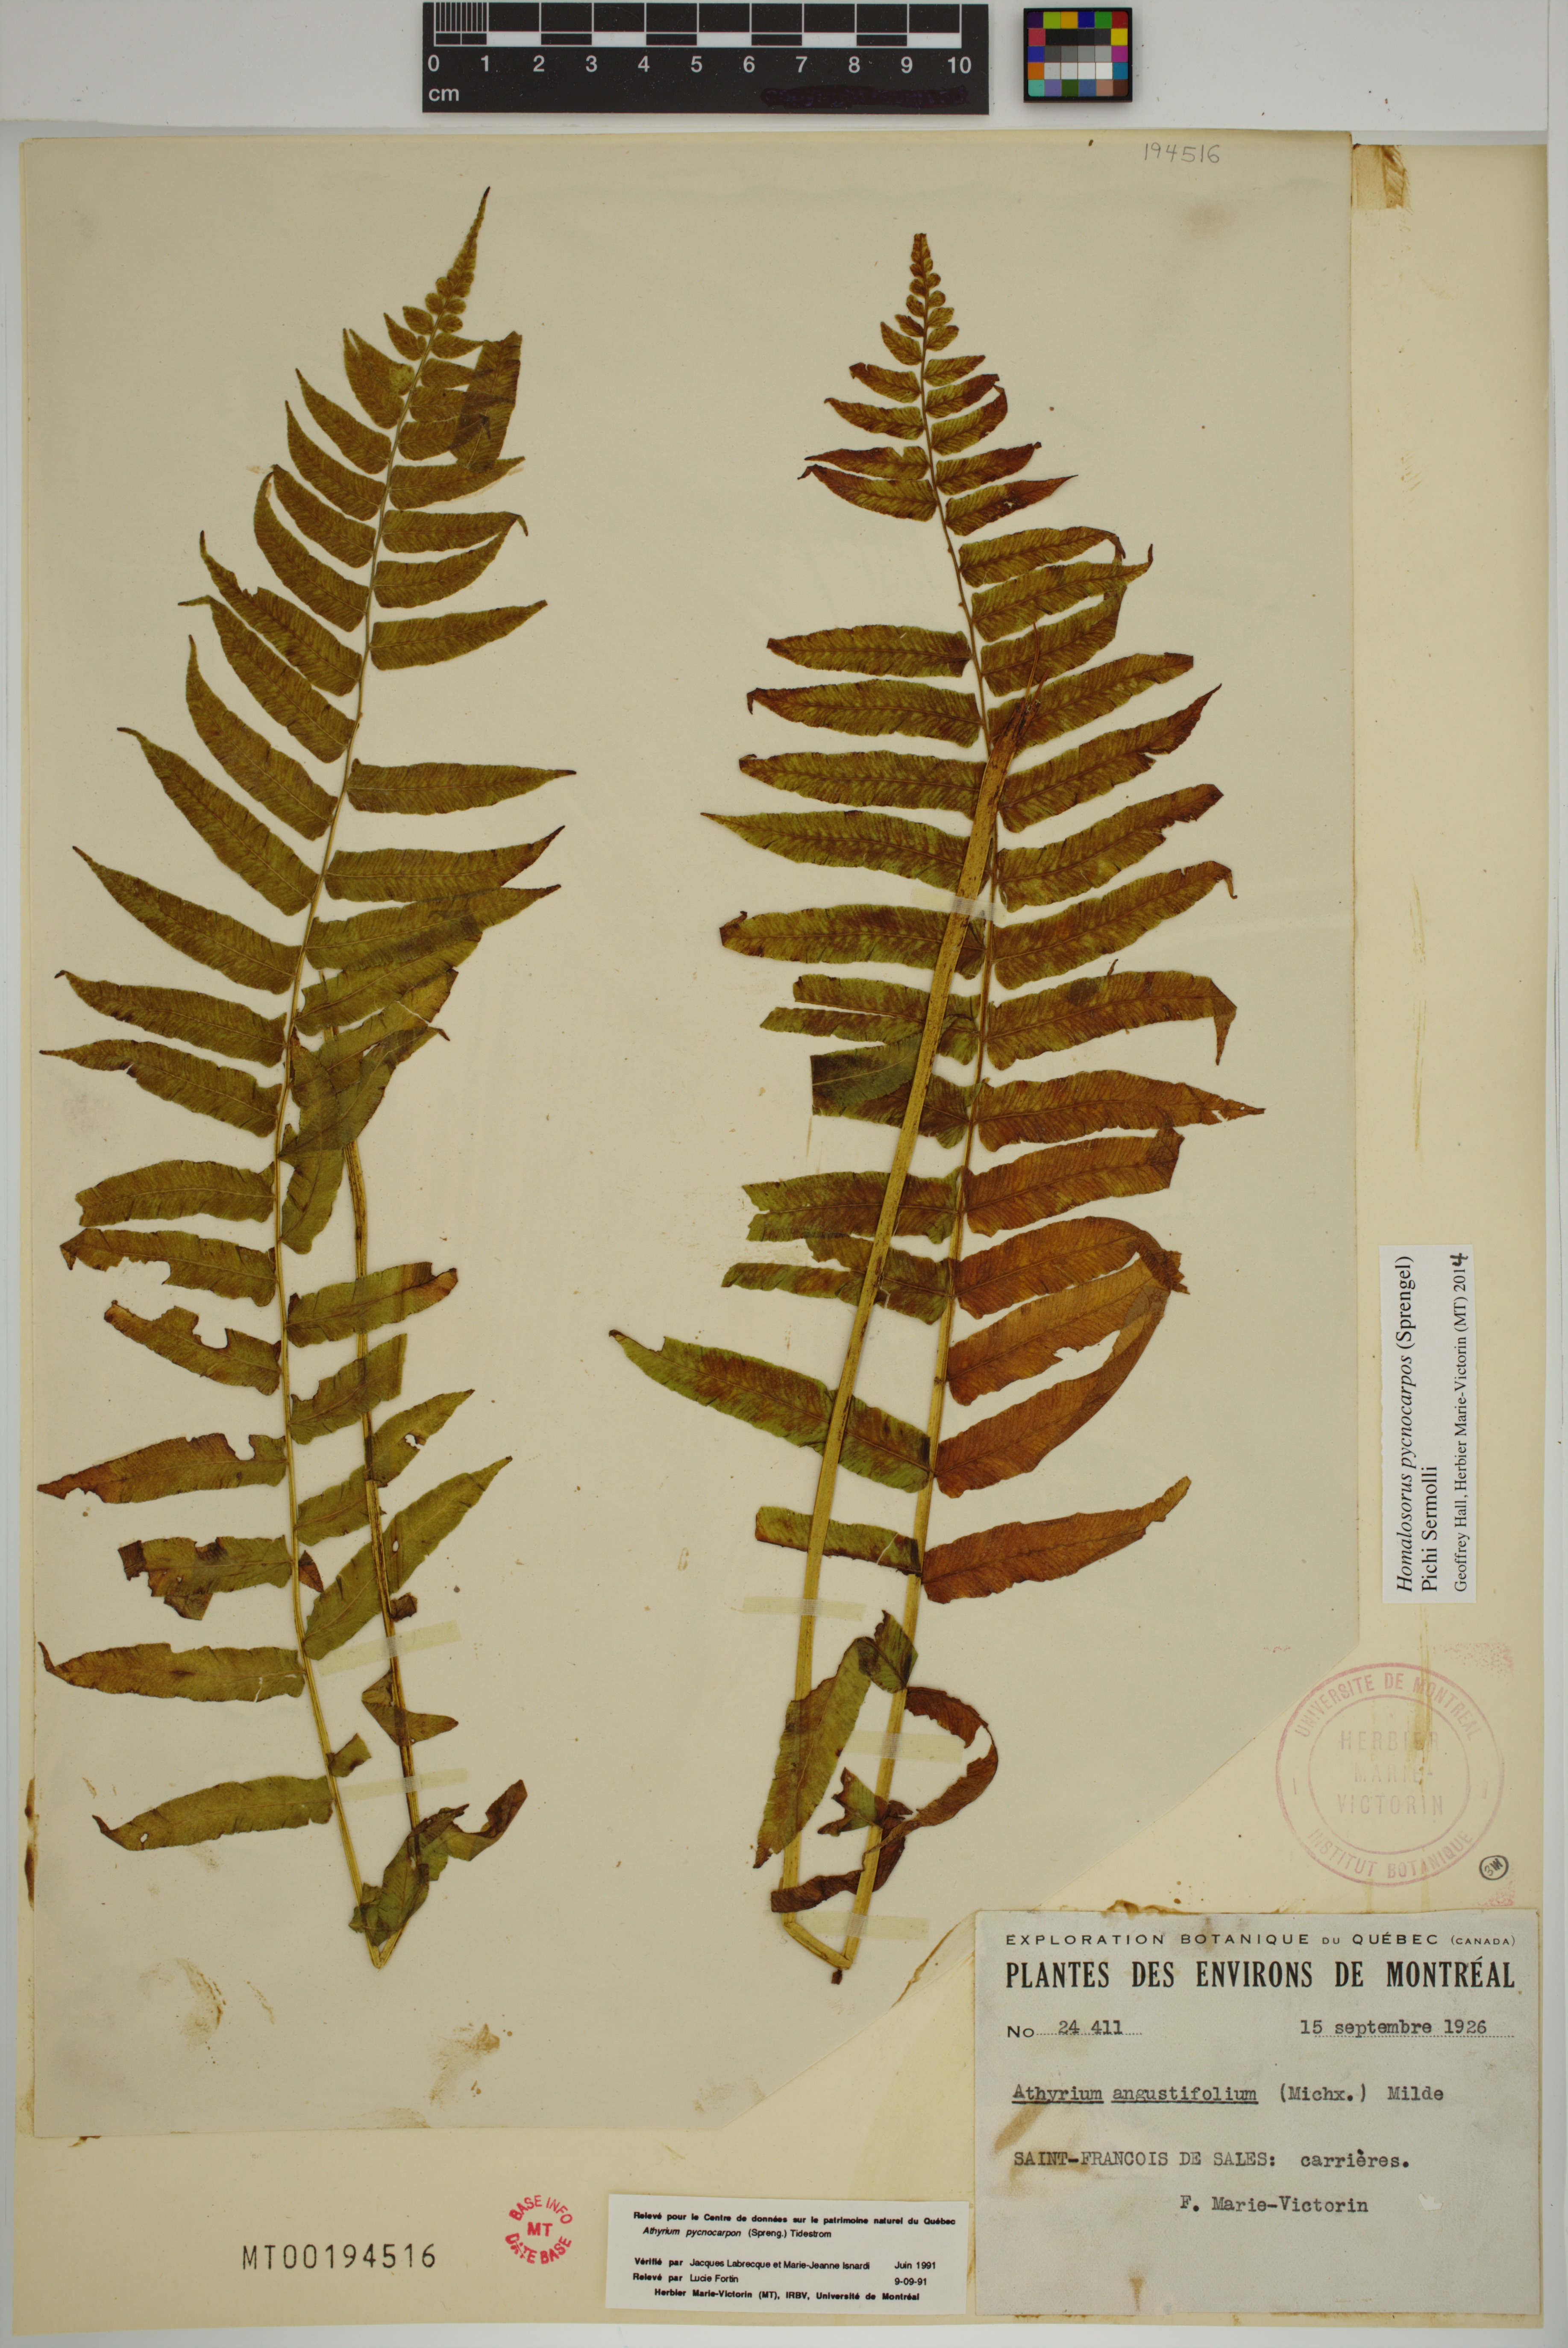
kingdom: Plantae
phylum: Tracheophyta
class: Polypodiopsida
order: Polypodiales
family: Diplaziopsidaceae
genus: Homalosorus
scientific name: Homalosorus pycnocarpos
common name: Glade fern
